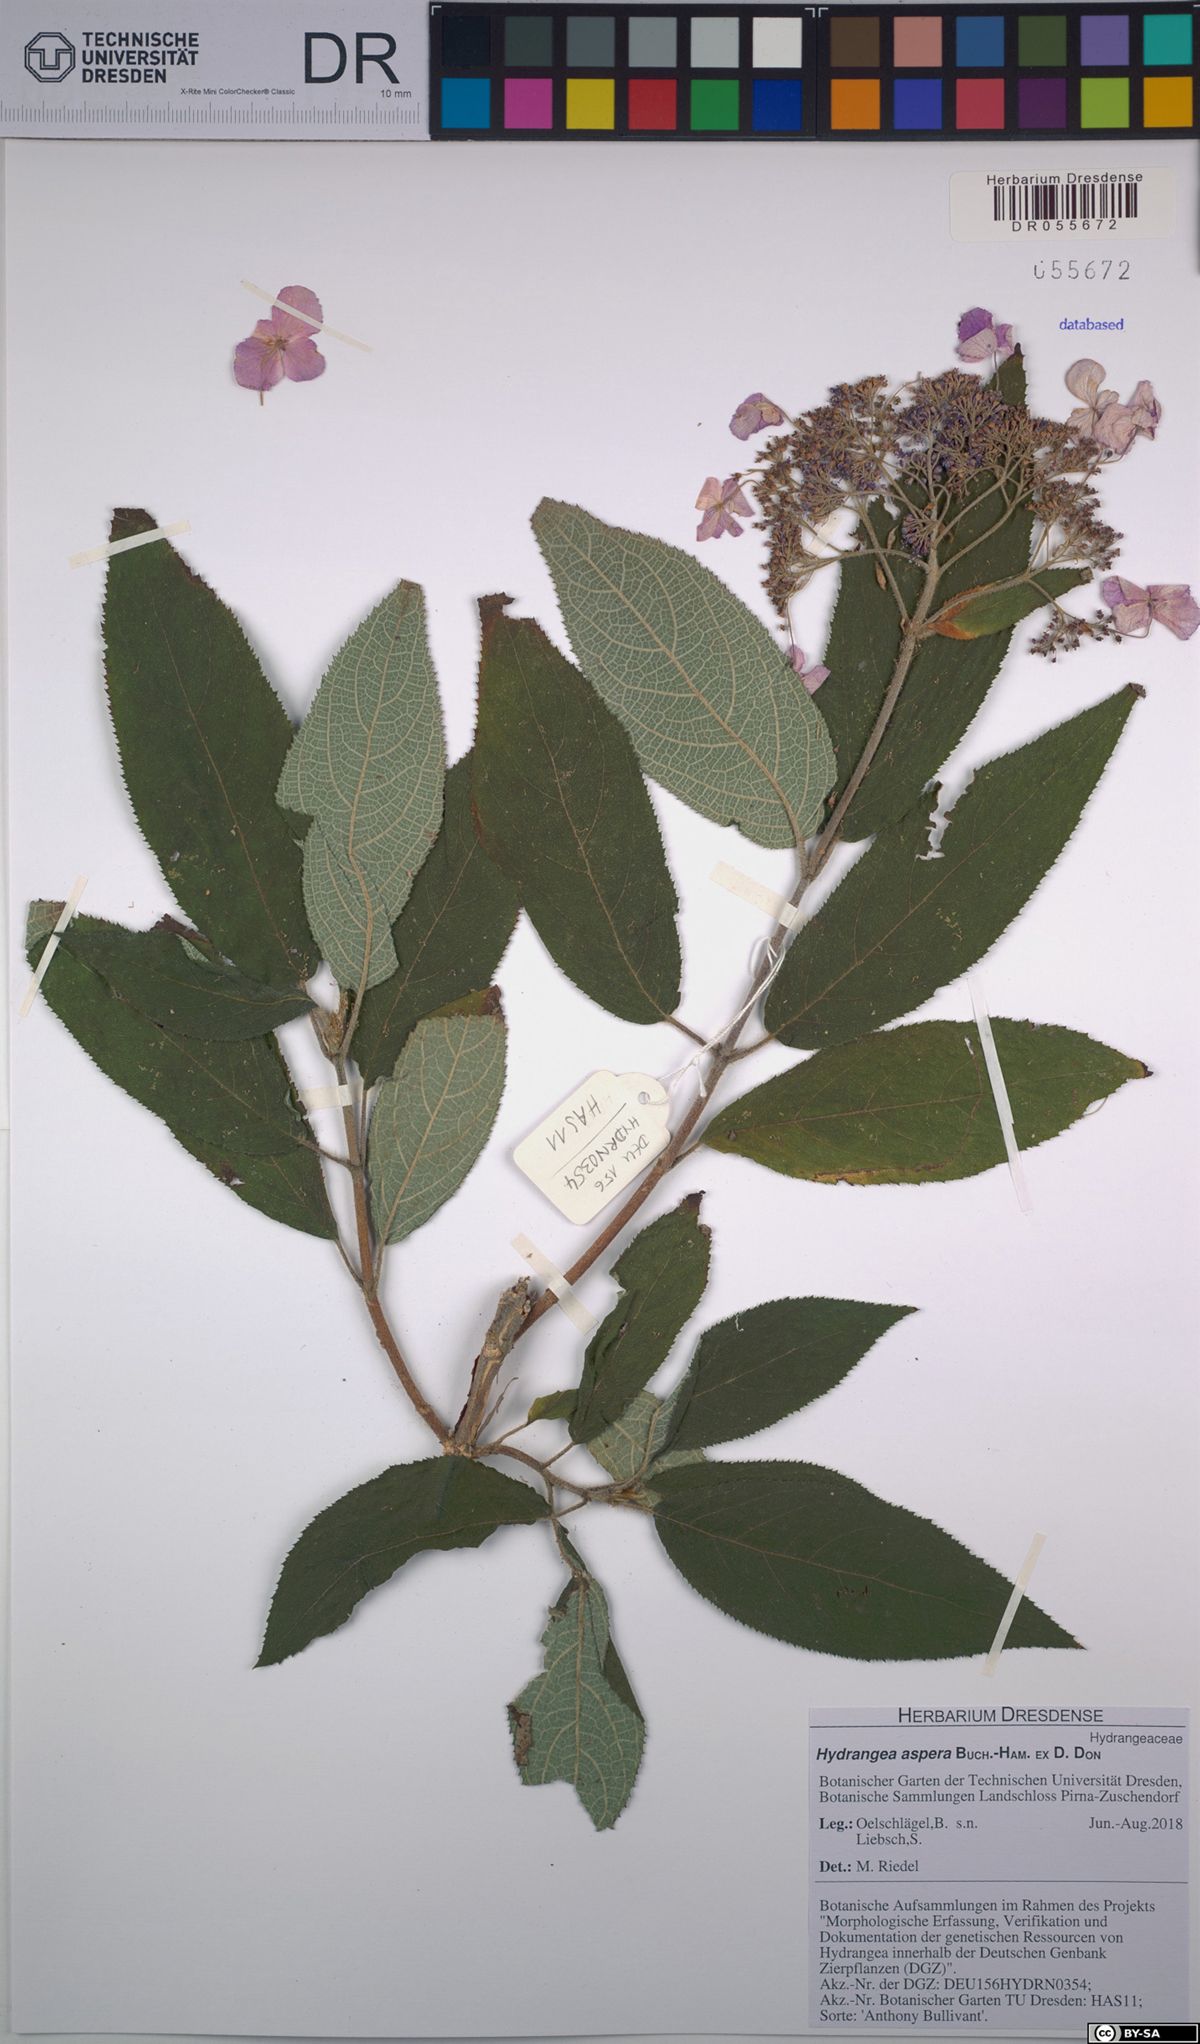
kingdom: Plantae
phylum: Tracheophyta
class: Magnoliopsida
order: Cornales
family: Hydrangeaceae
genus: Hydrangea
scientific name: Hydrangea aspera
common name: Rough-leaf hydrangea
